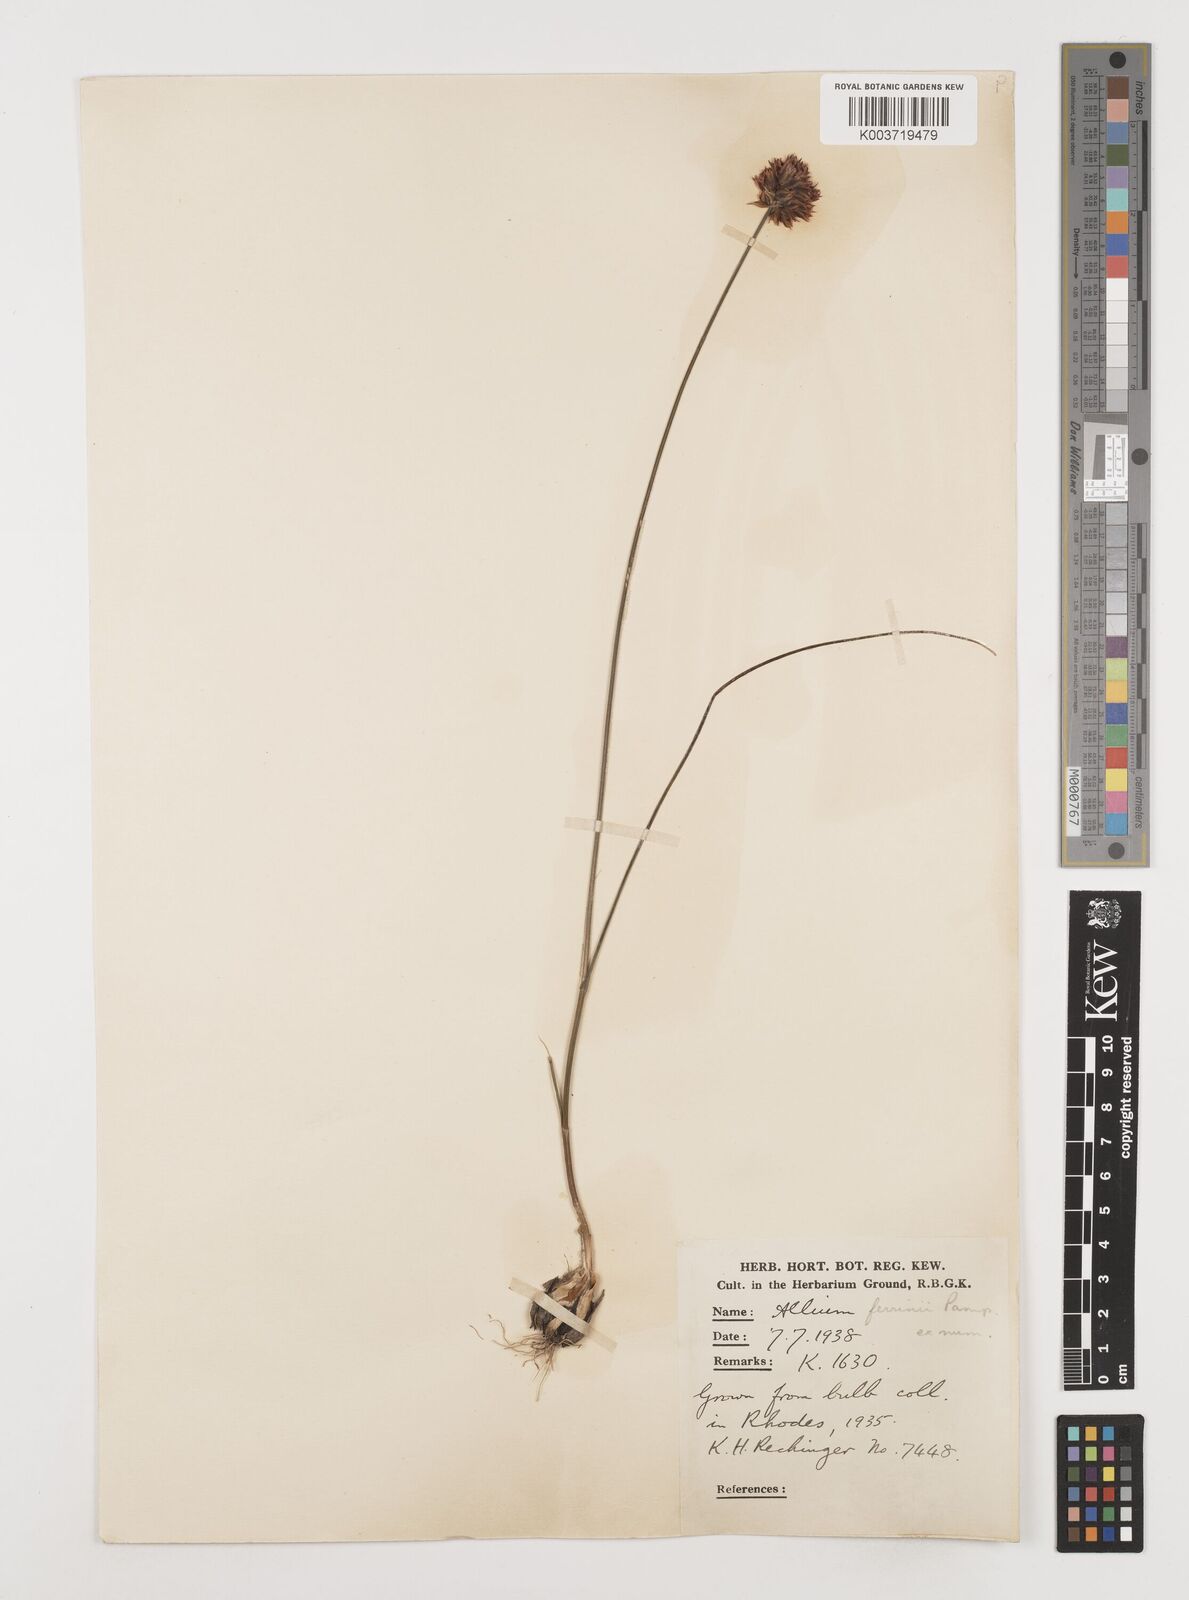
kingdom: Plantae
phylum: Tracheophyta
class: Liliopsida
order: Asparagales
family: Amaryllidaceae
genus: Allium
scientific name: Allium junceum
